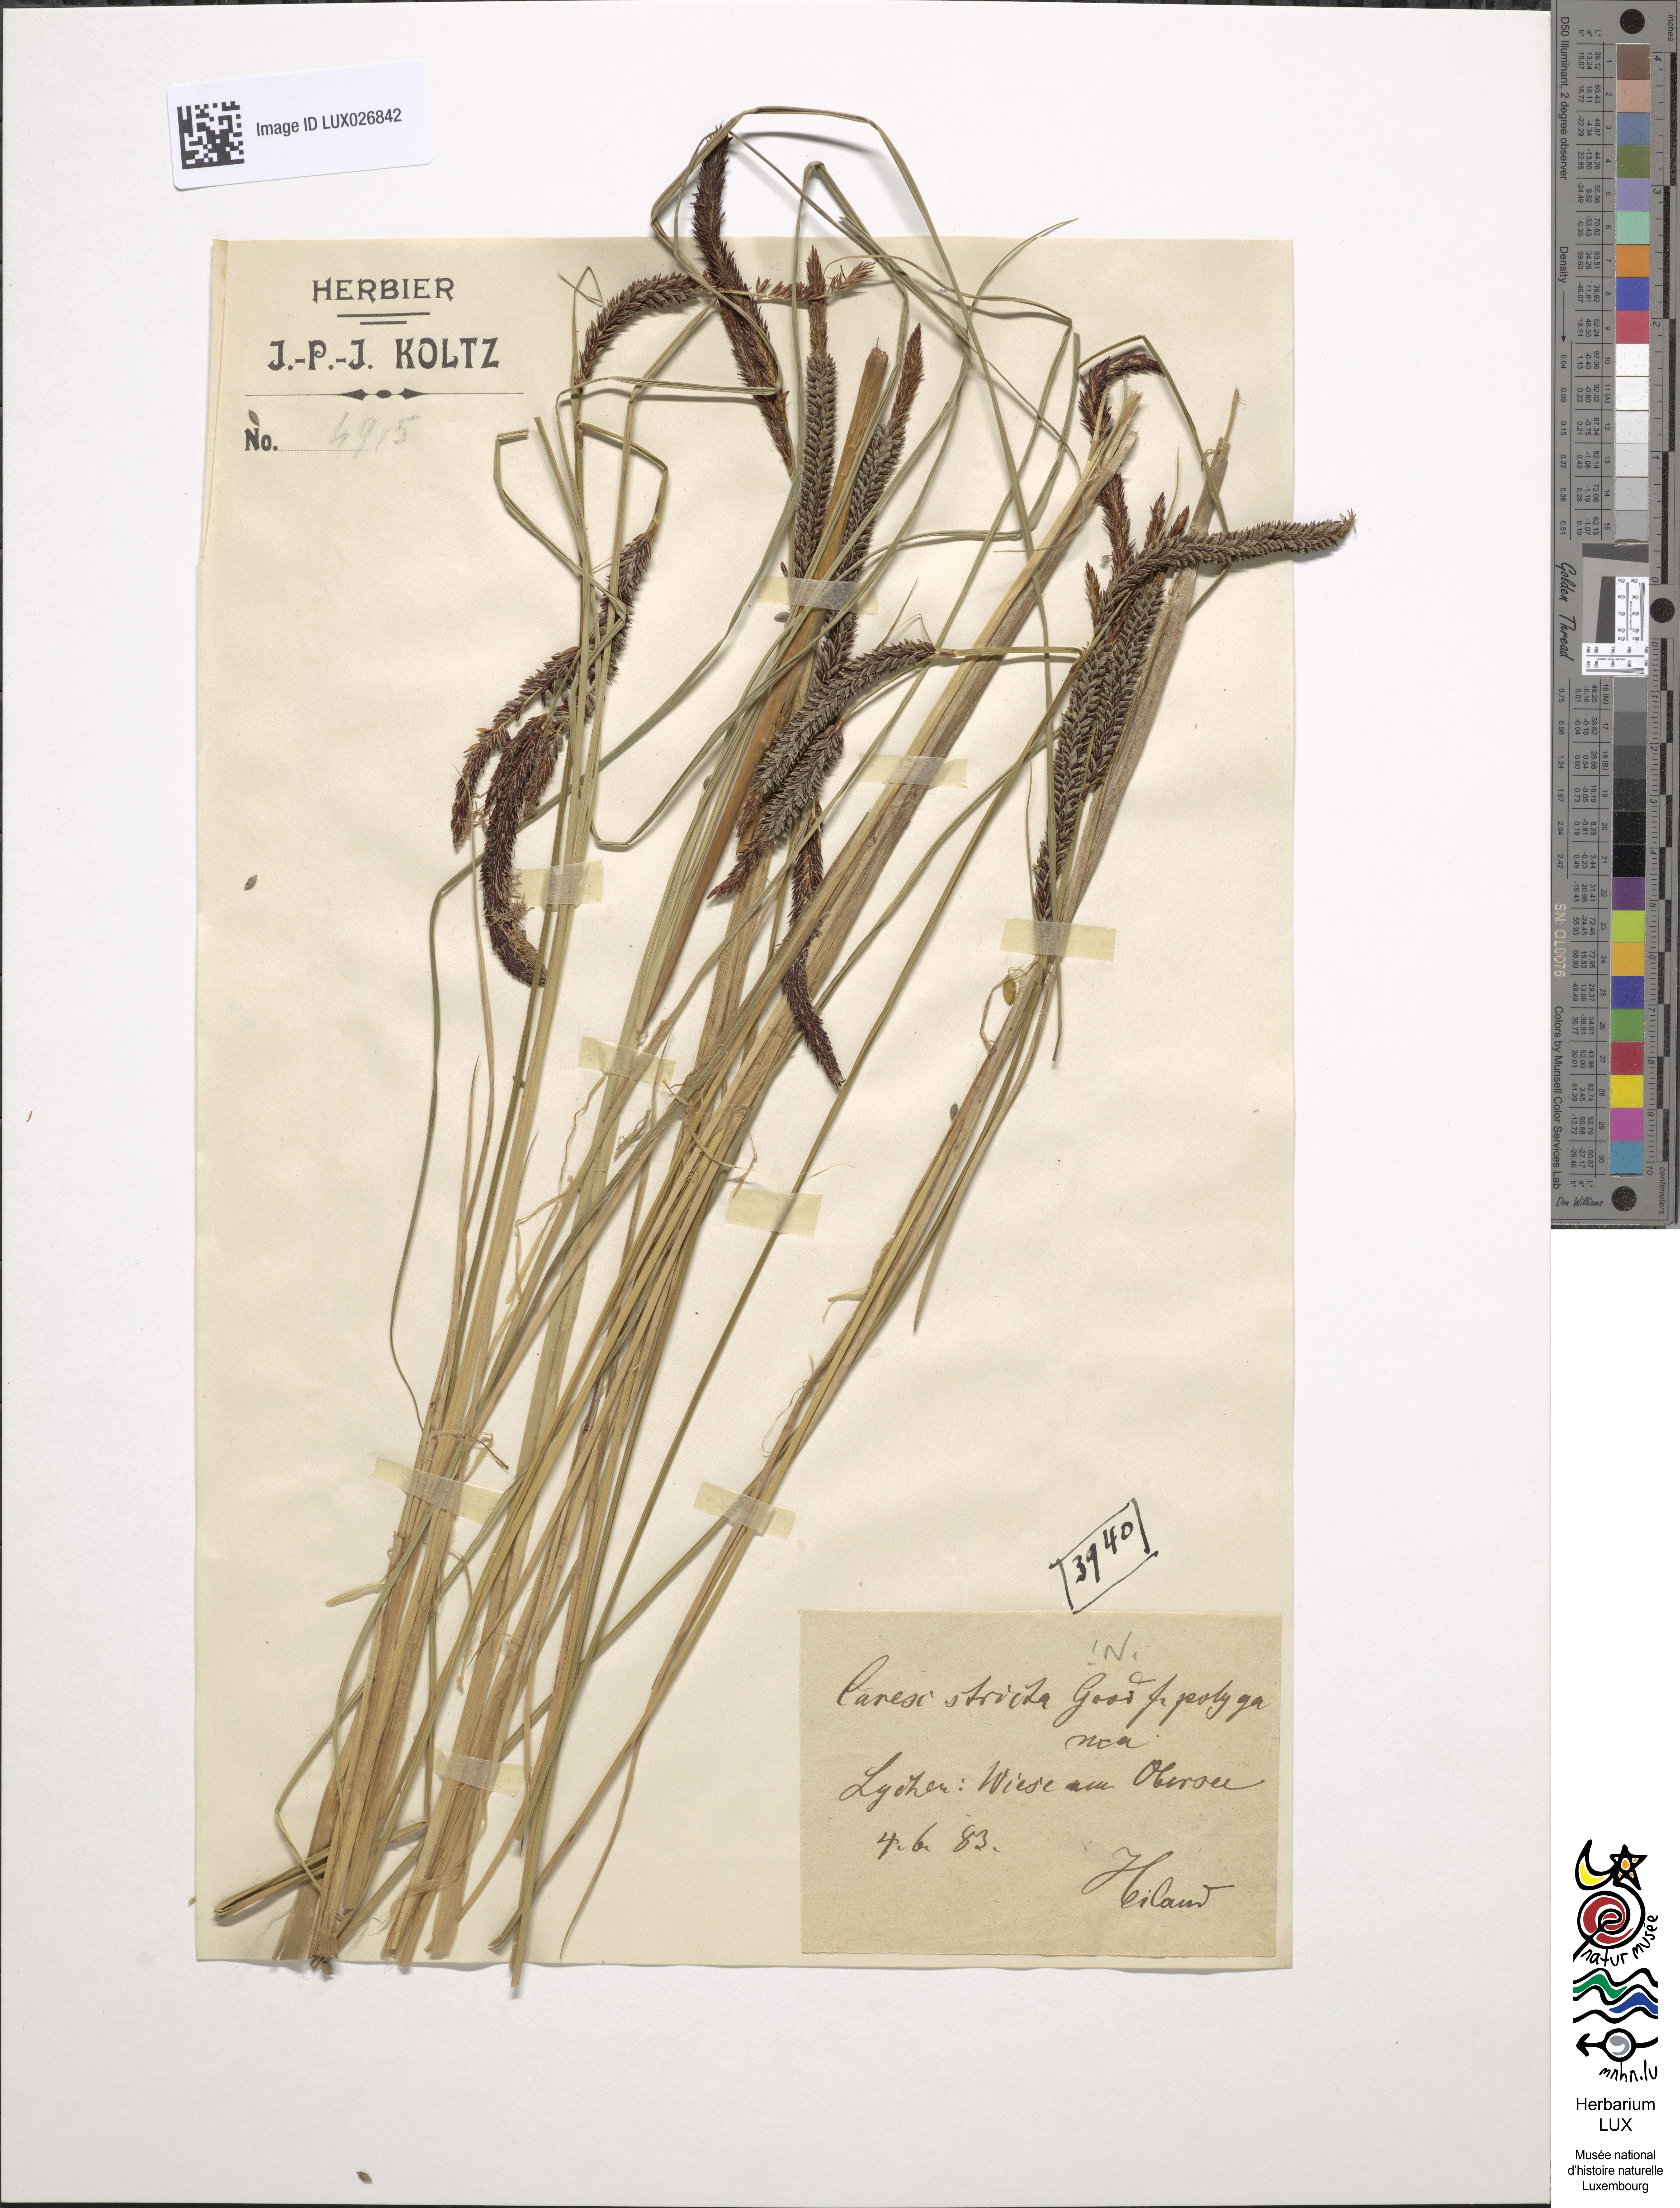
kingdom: Plantae
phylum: Tracheophyta
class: Liliopsida
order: Poales
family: Cyperaceae
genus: Carex
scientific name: Carex elata
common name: Tufted sedge
